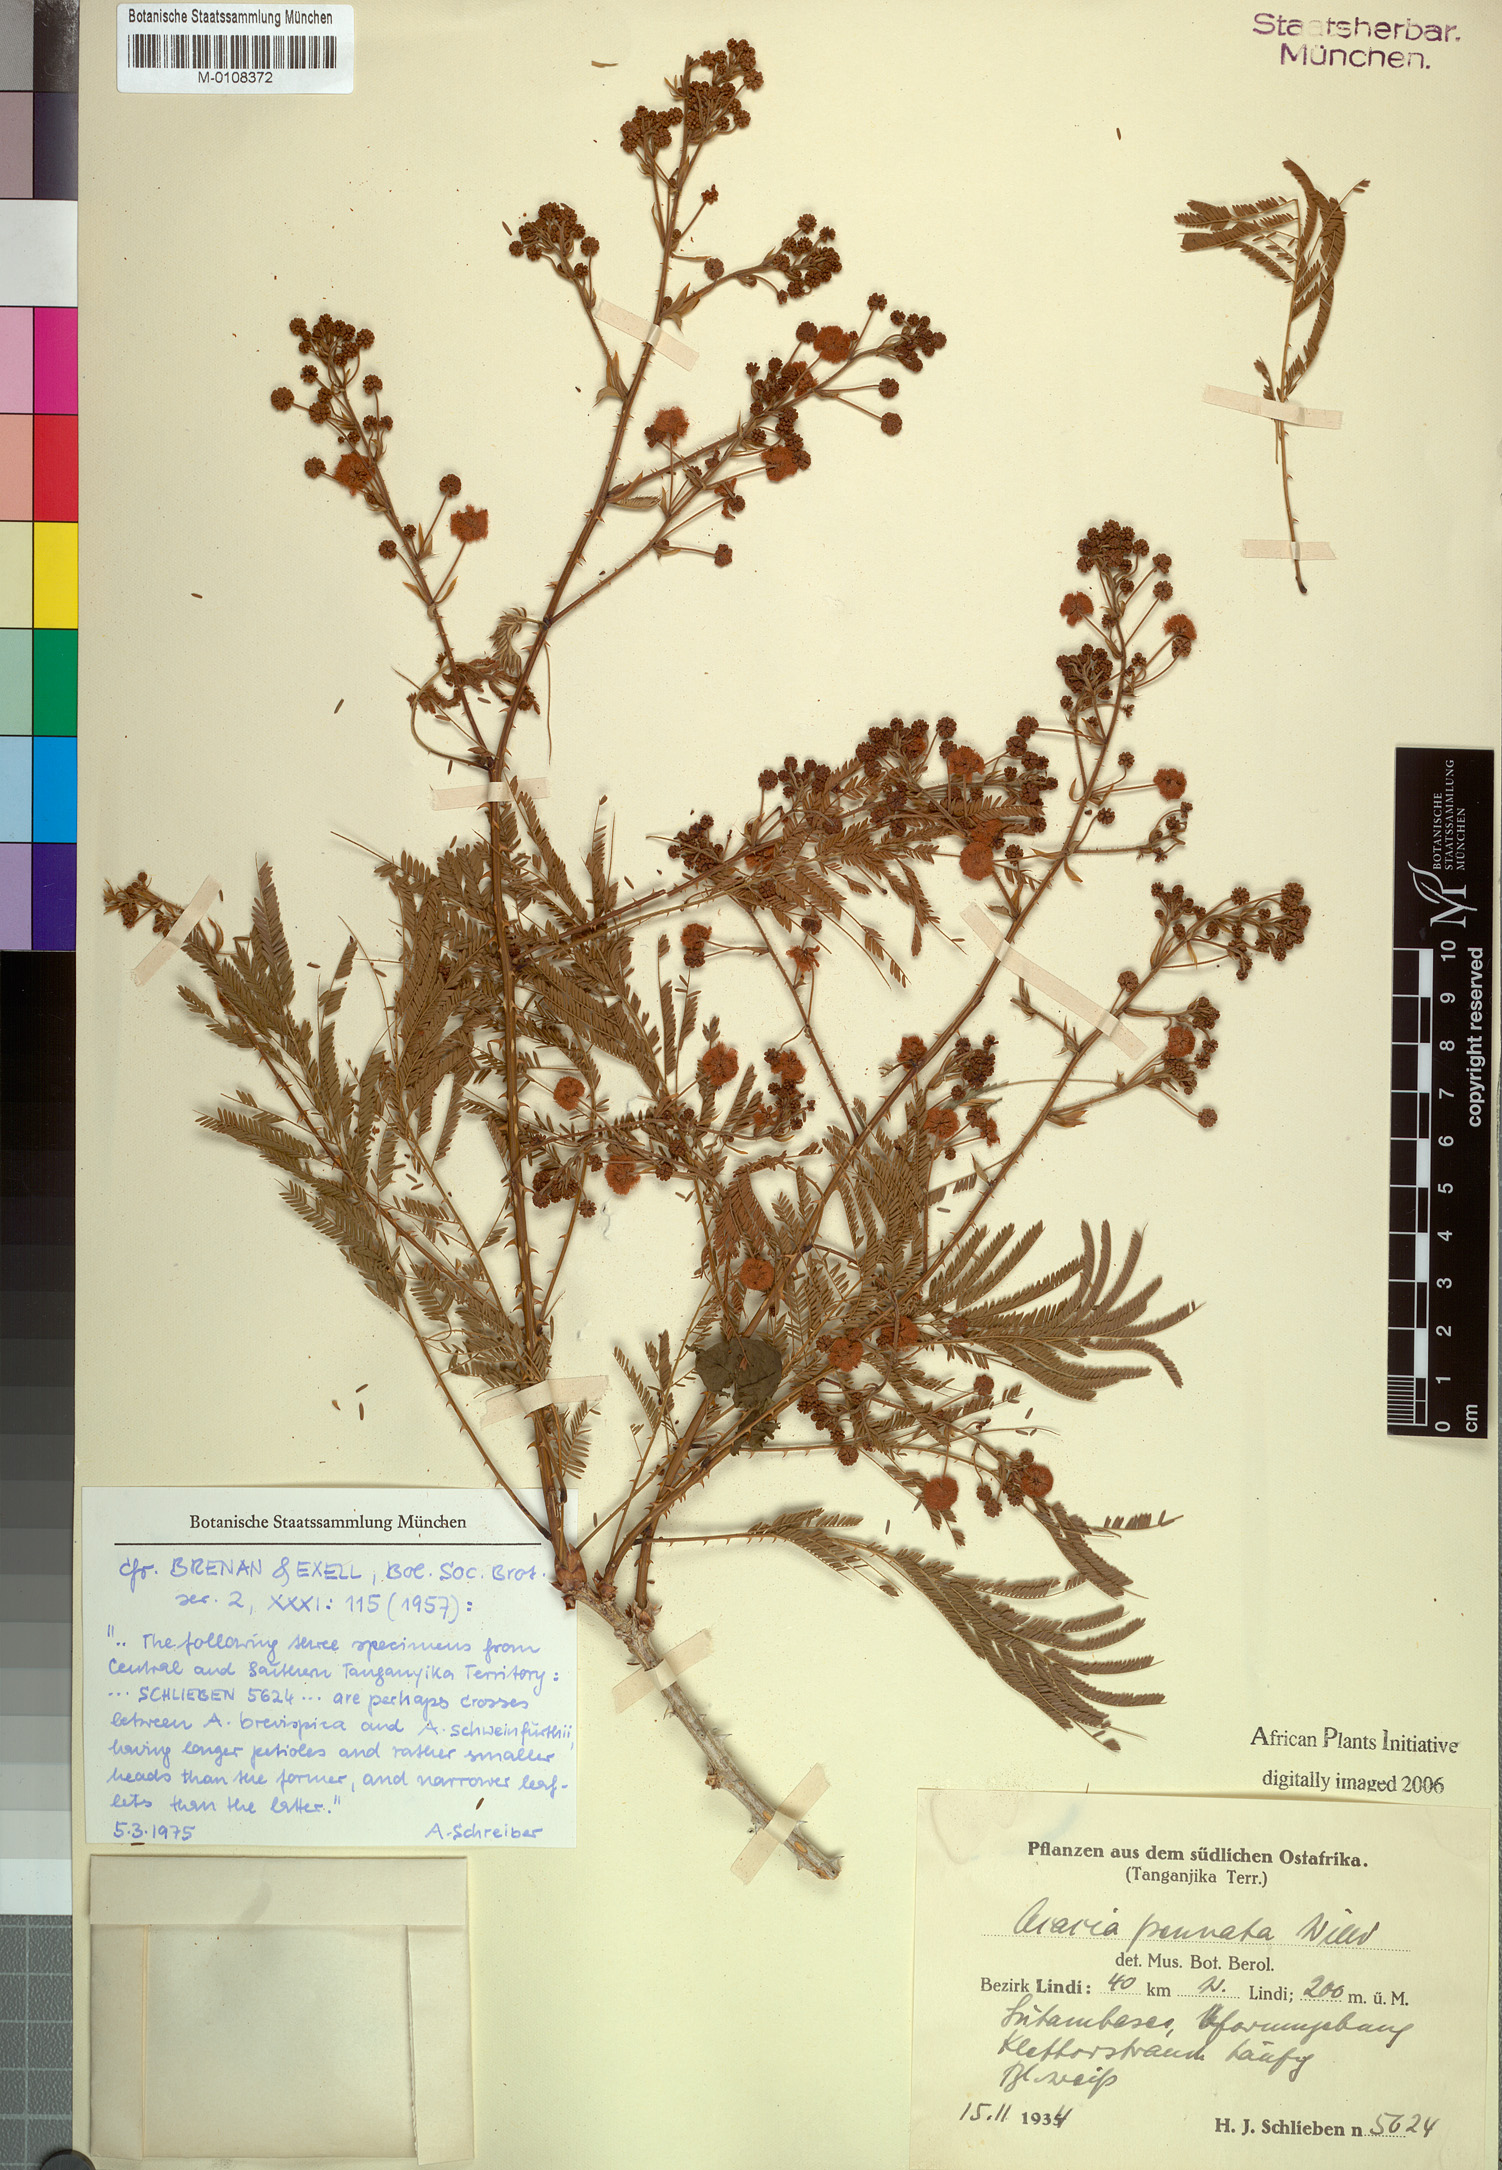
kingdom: Plantae
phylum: Tracheophyta
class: Magnoliopsida
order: Fabales
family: Fabaceae
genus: Senegalia
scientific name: Senegalia pennata
